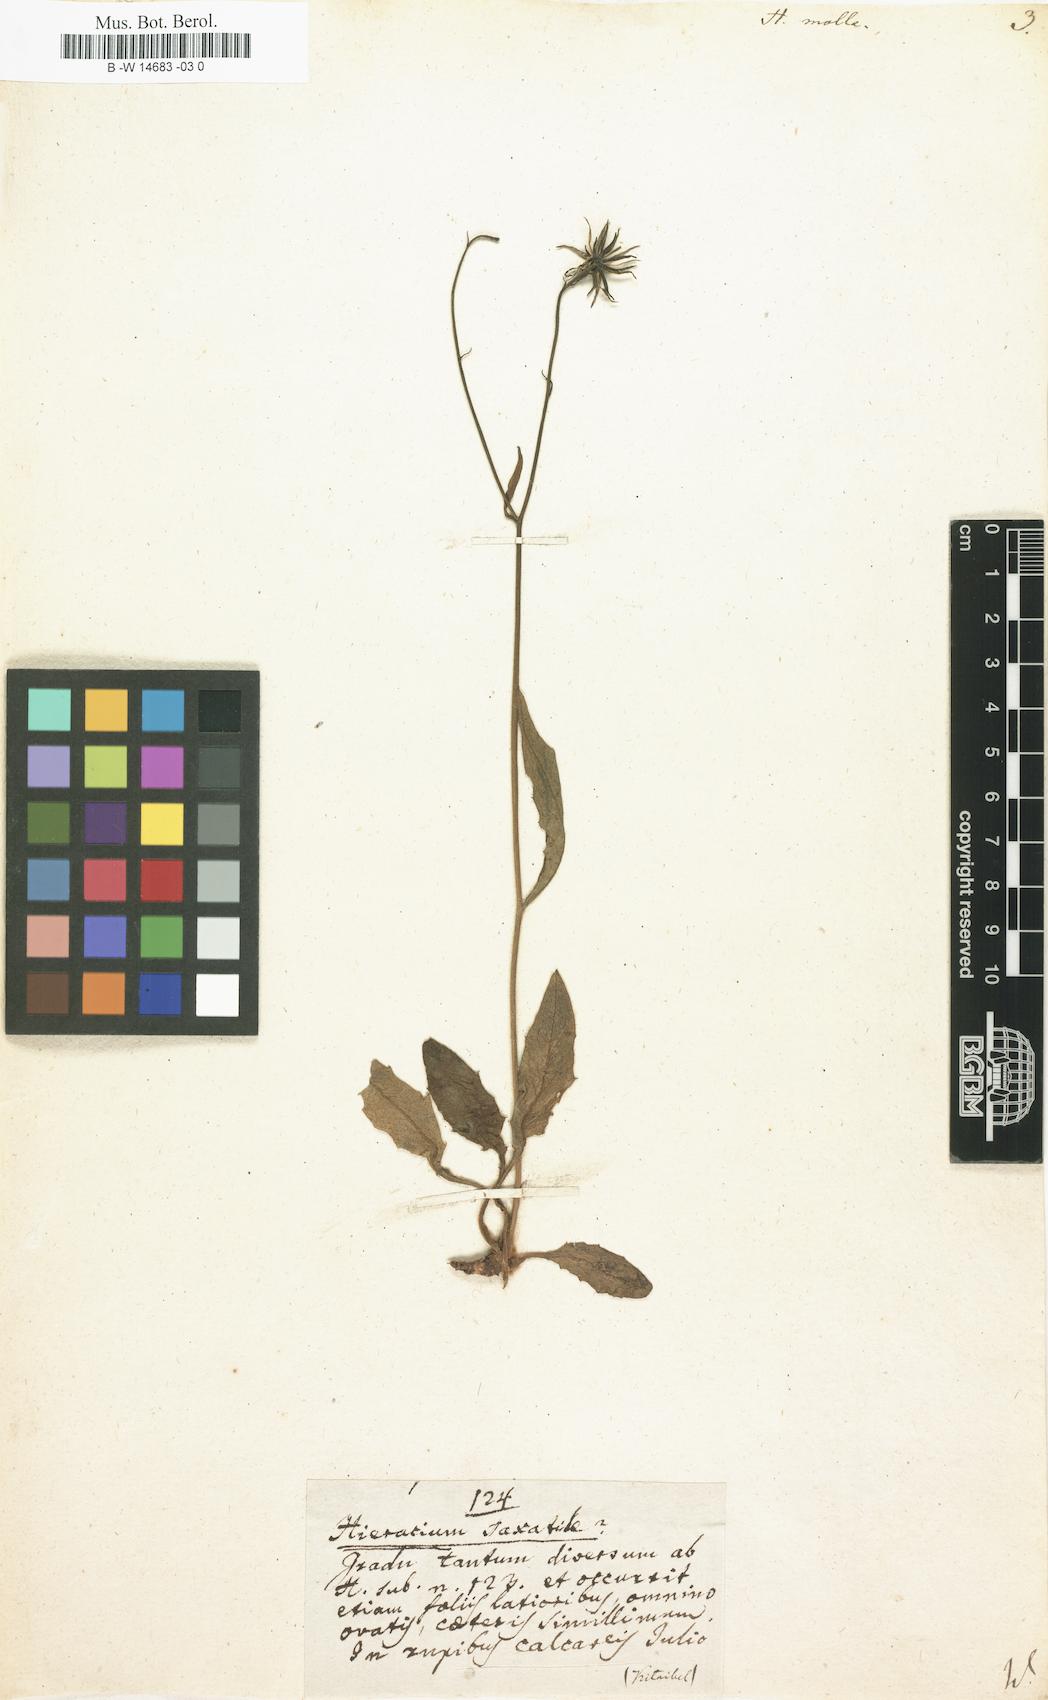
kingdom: Plantae
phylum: Tracheophyta
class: Magnoliopsida
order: Asterales
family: Asteraceae
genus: Hieracium
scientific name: Hieracium molle
